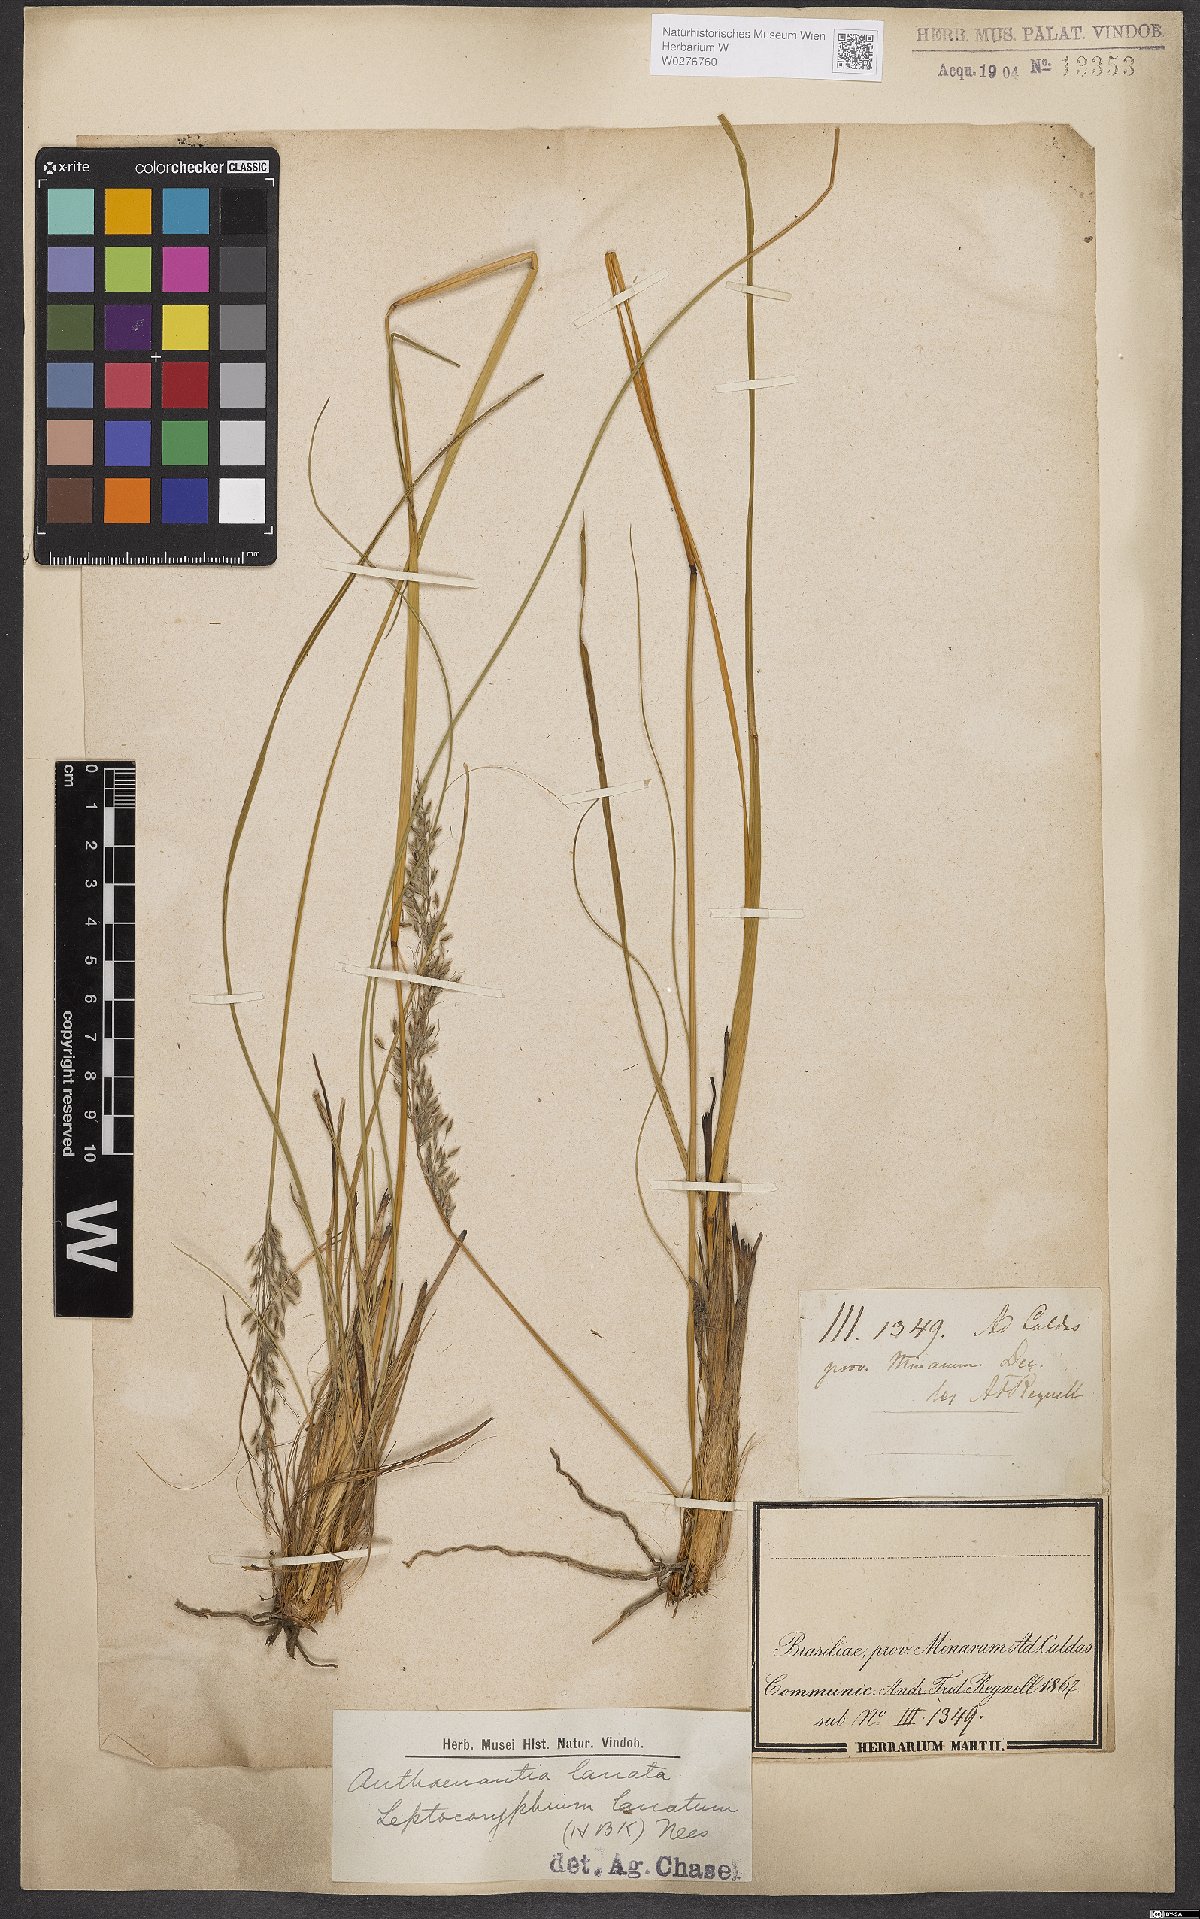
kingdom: Plantae
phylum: Tracheophyta
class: Liliopsida
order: Poales
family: Poaceae
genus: Anthaenantia
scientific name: Anthaenantia lanata
